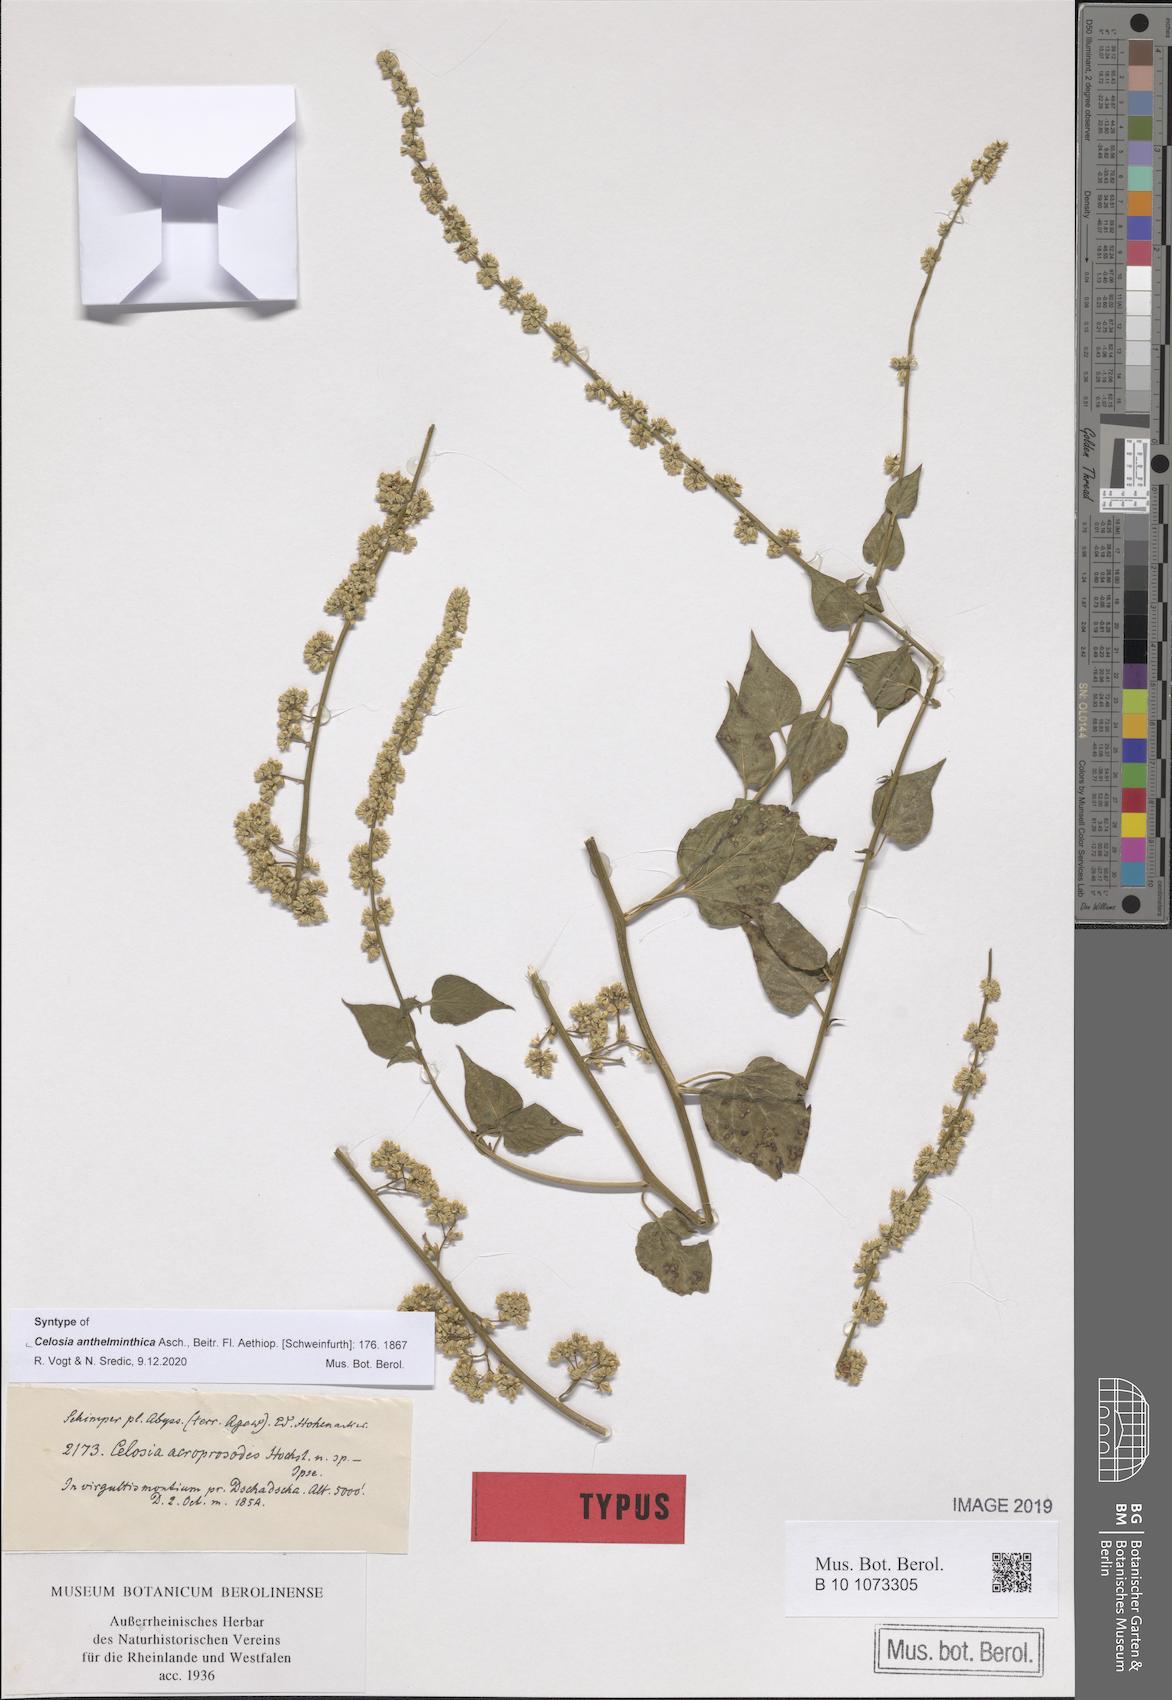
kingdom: Plantae
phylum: Tracheophyta
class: Magnoliopsida
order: Caryophyllales
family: Amaranthaceae
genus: Celosia
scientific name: Celosia anthelminthica
